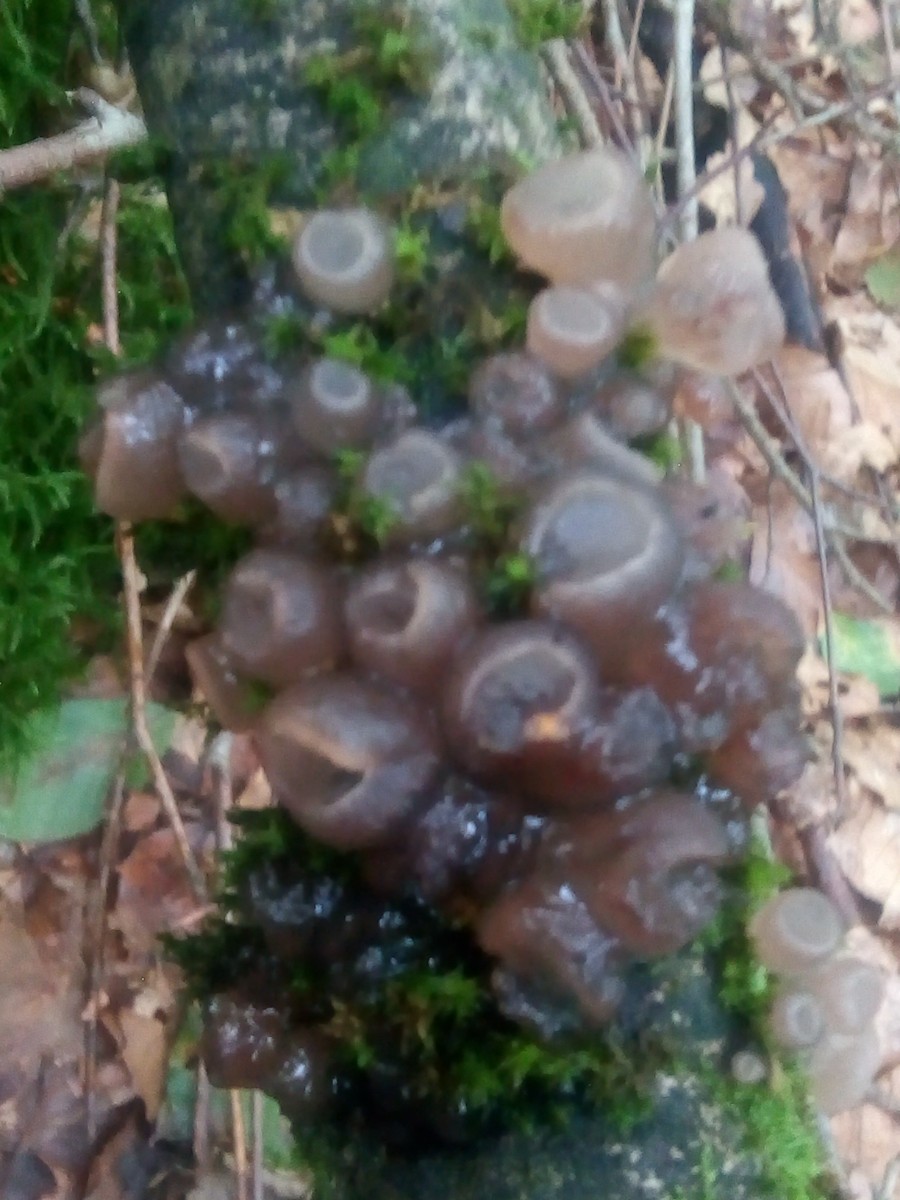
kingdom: Fungi
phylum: Ascomycota
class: Leotiomycetes
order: Helotiales
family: Gelatinodiscaceae
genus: Neobulgaria
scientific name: Neobulgaria pura
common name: bleg bævreskive
